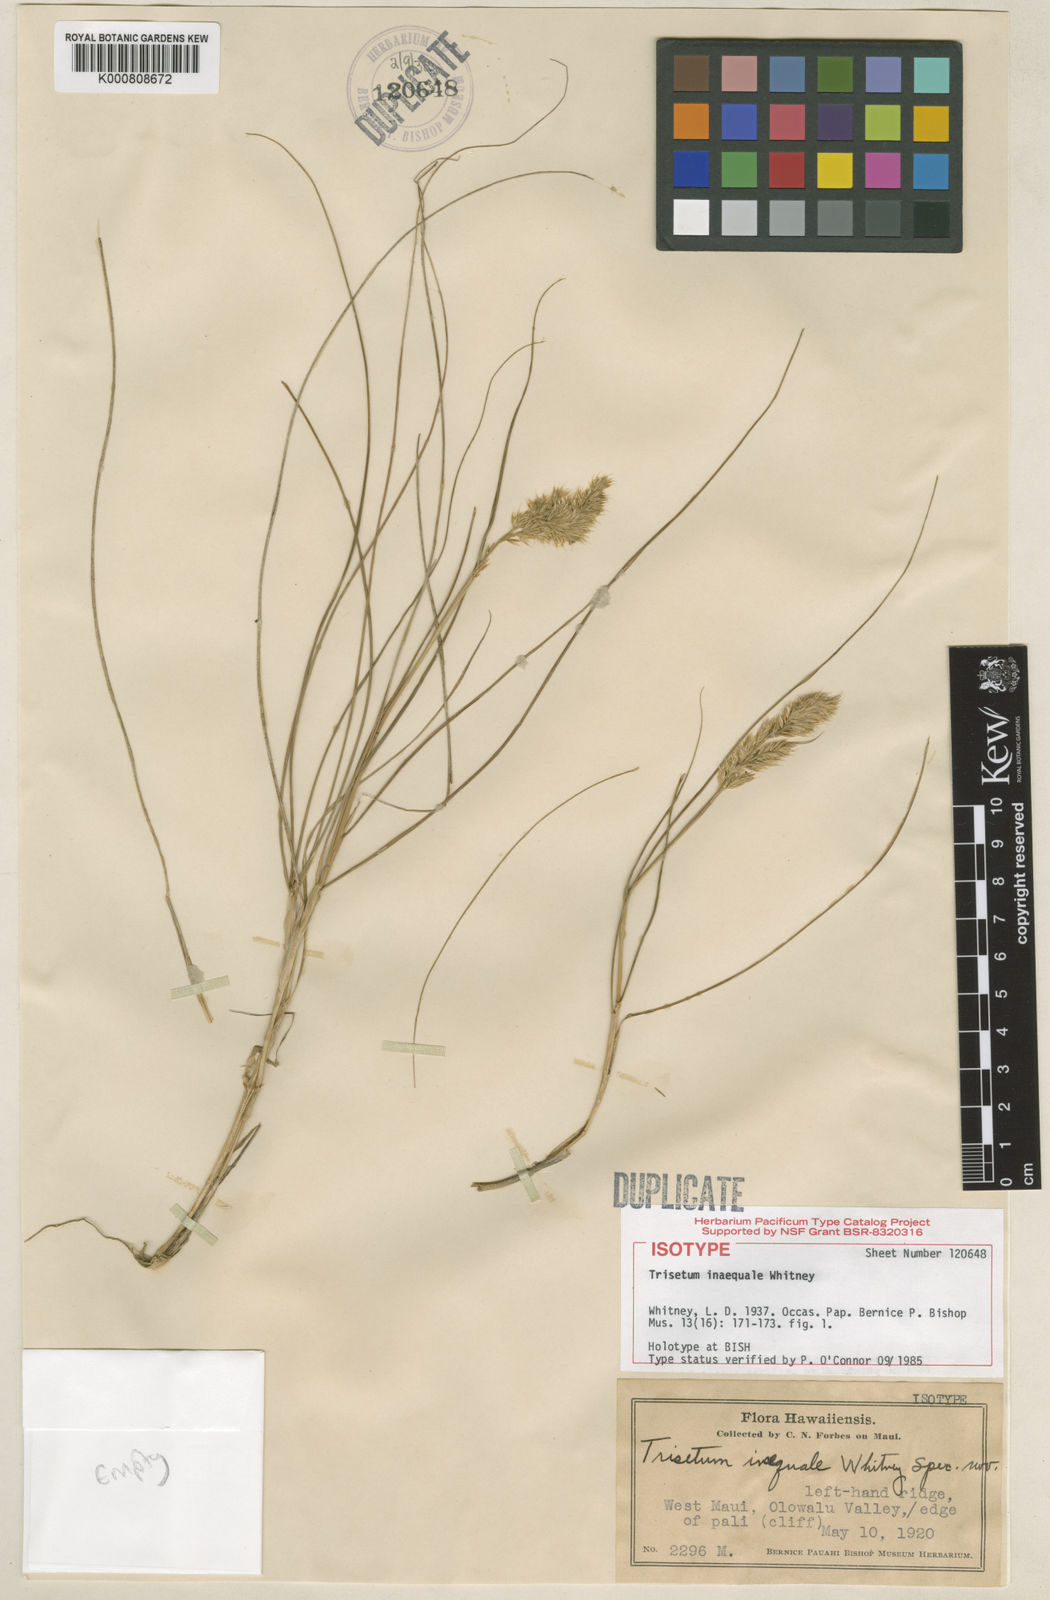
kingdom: Plantae
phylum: Tracheophyta
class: Liliopsida
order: Poales
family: Poaceae
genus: Koeleria
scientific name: Koeleria inaequalis
